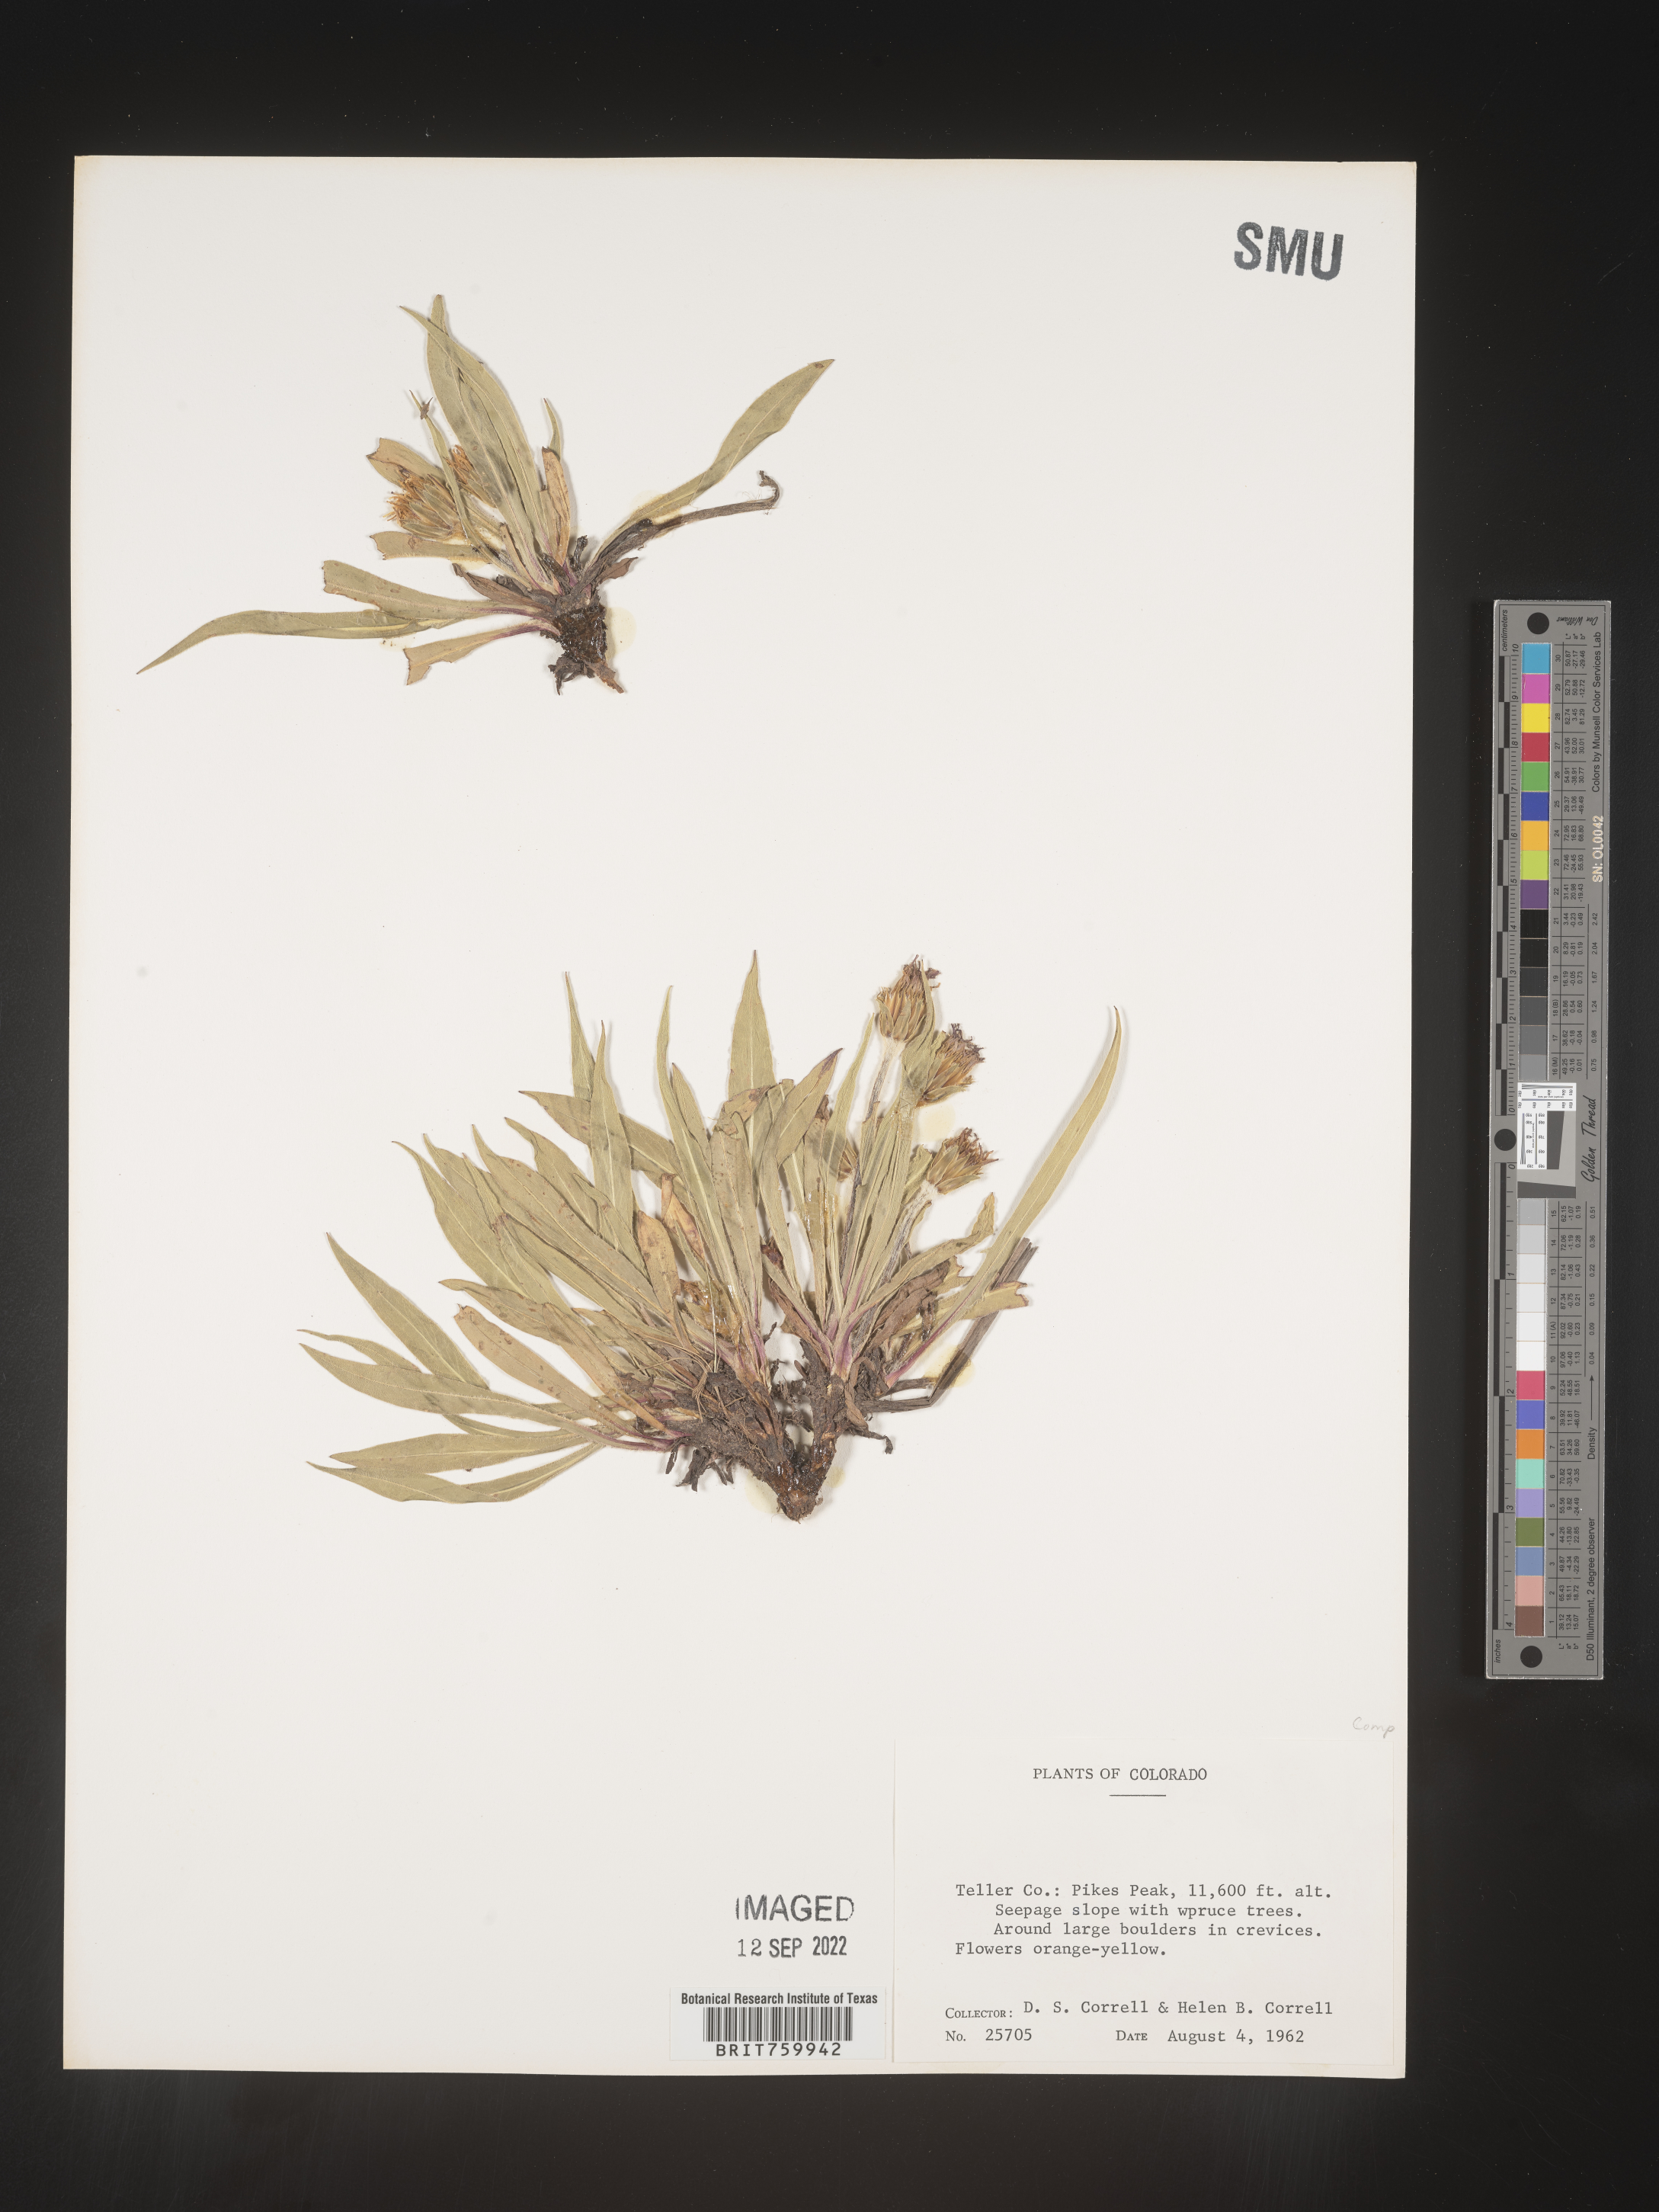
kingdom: Plantae
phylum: Tracheophyta
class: Magnoliopsida
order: Asterales
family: Asteraceae
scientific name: Asteraceae
